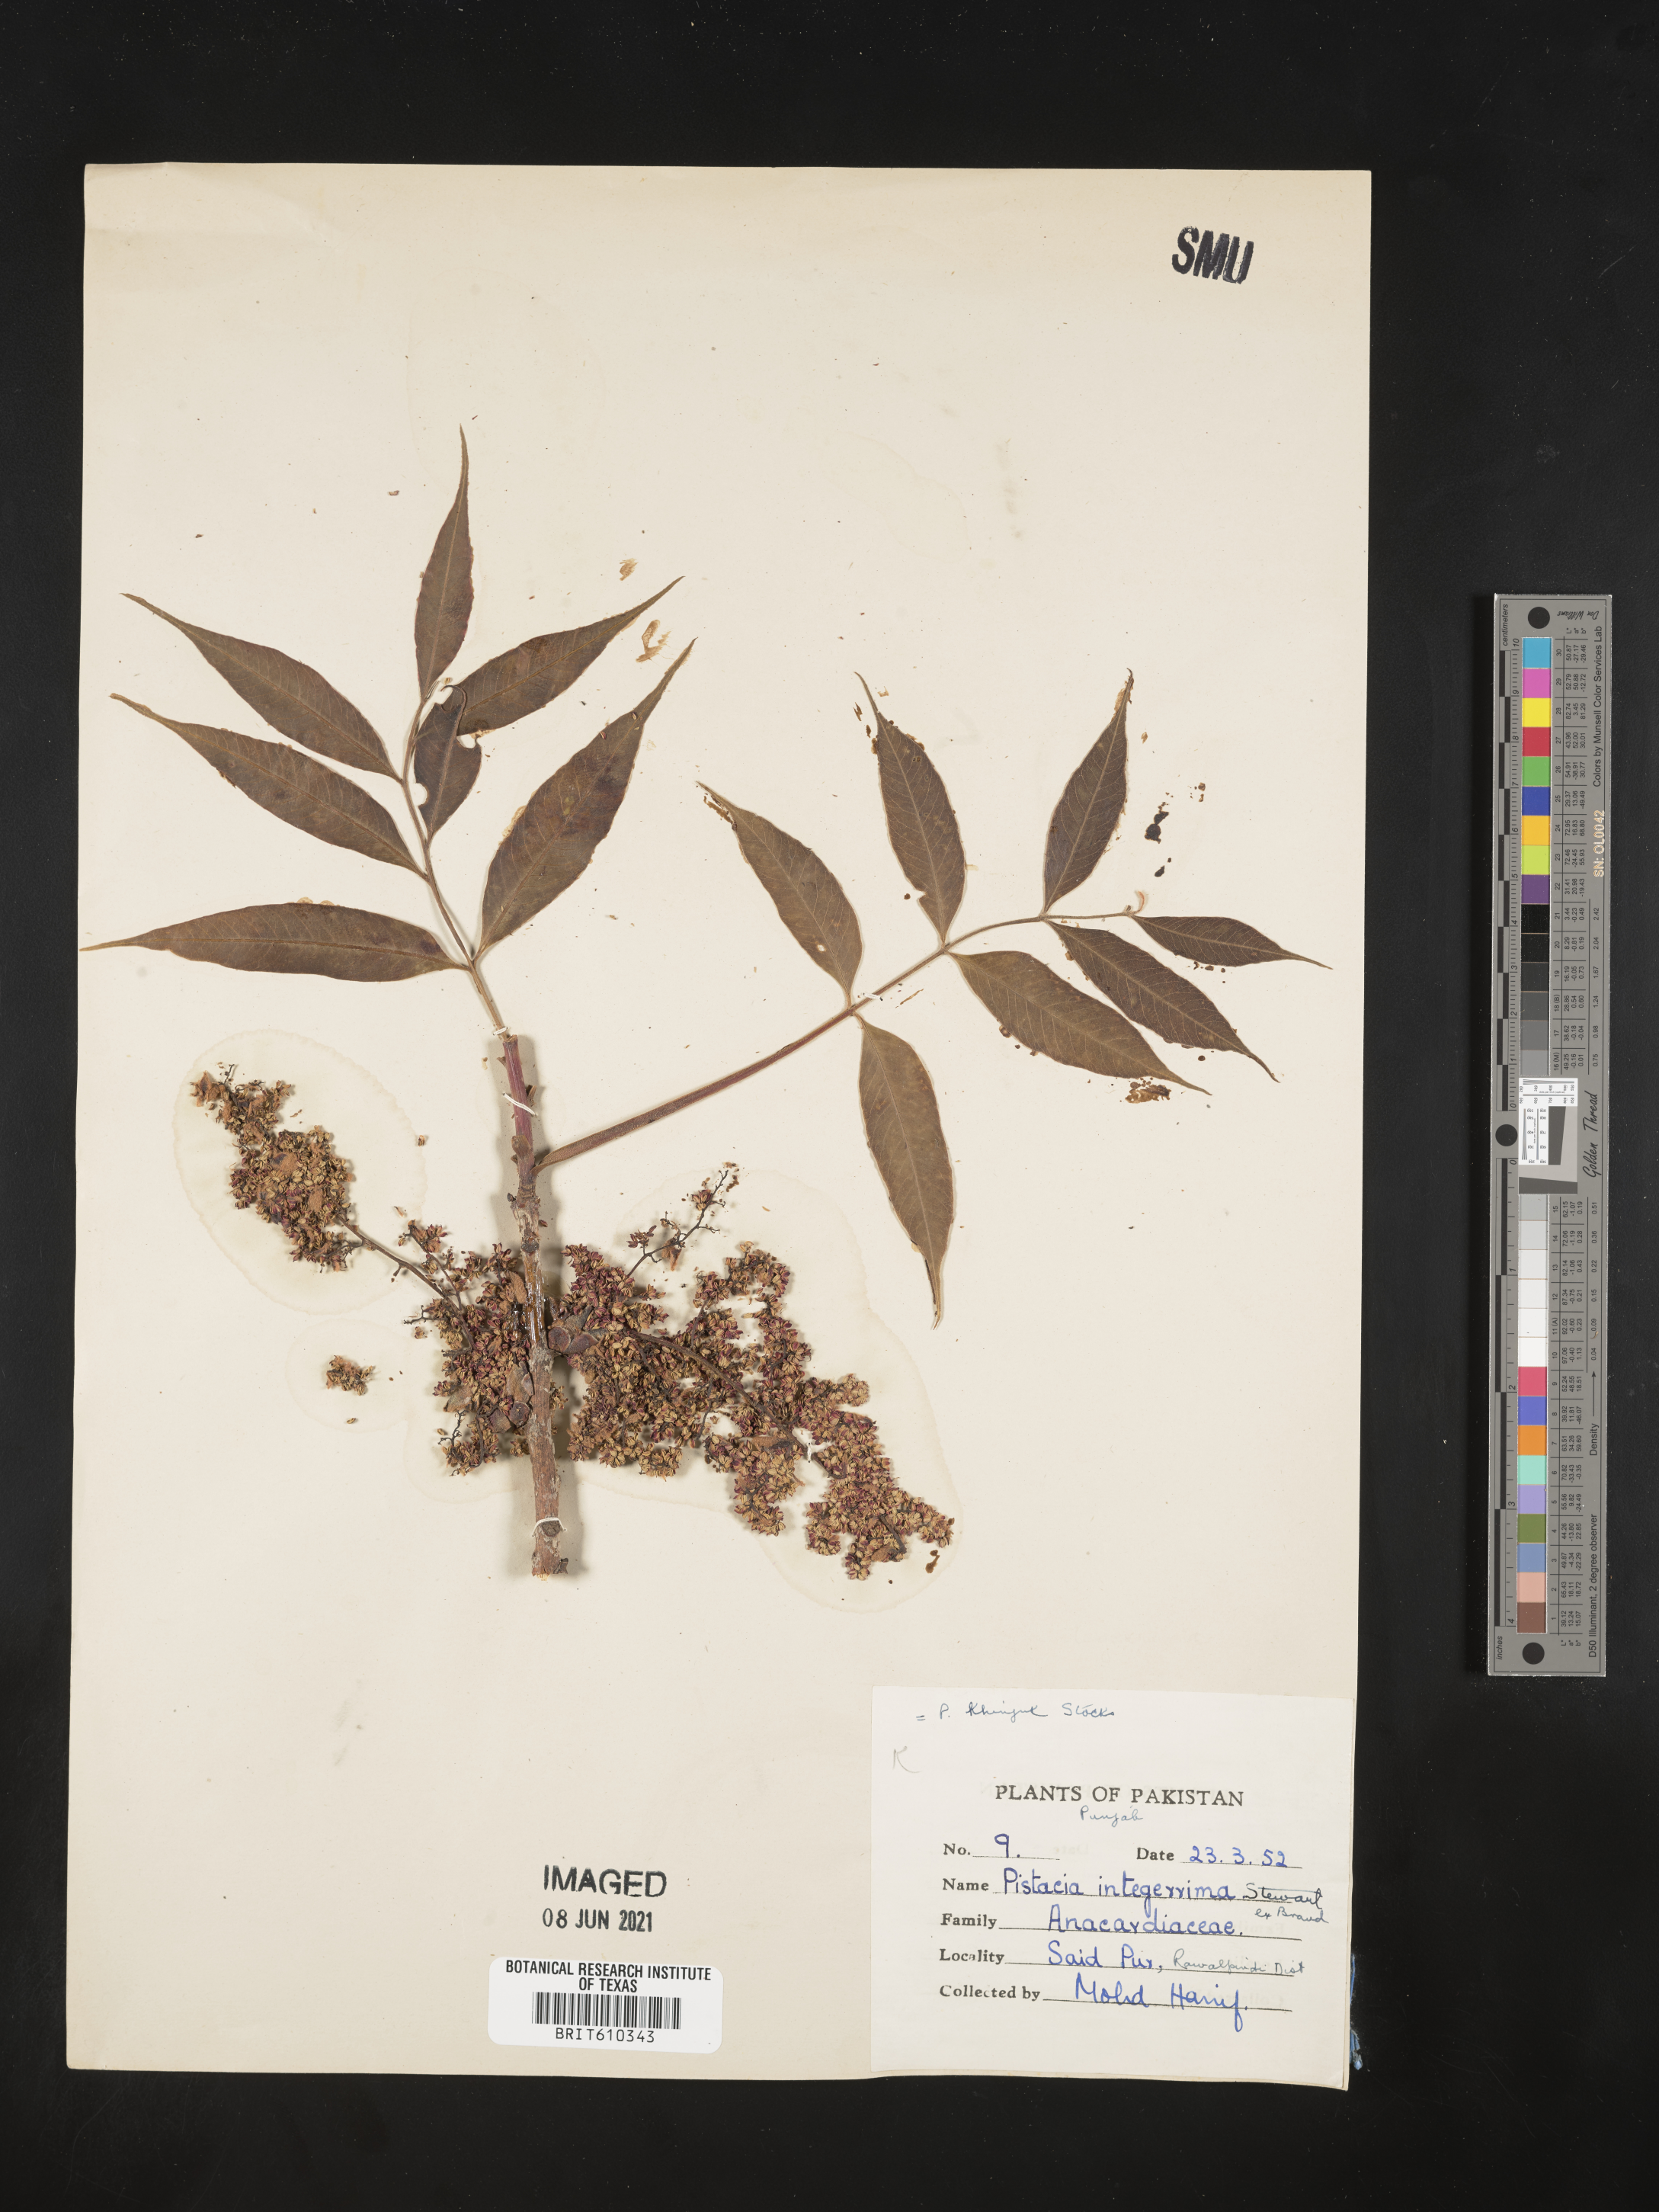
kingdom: Plantae
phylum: Tracheophyta
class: Magnoliopsida
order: Sapindales
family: Anacardiaceae
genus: Pistacia
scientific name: Pistacia chinensis
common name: Chinese pistache
